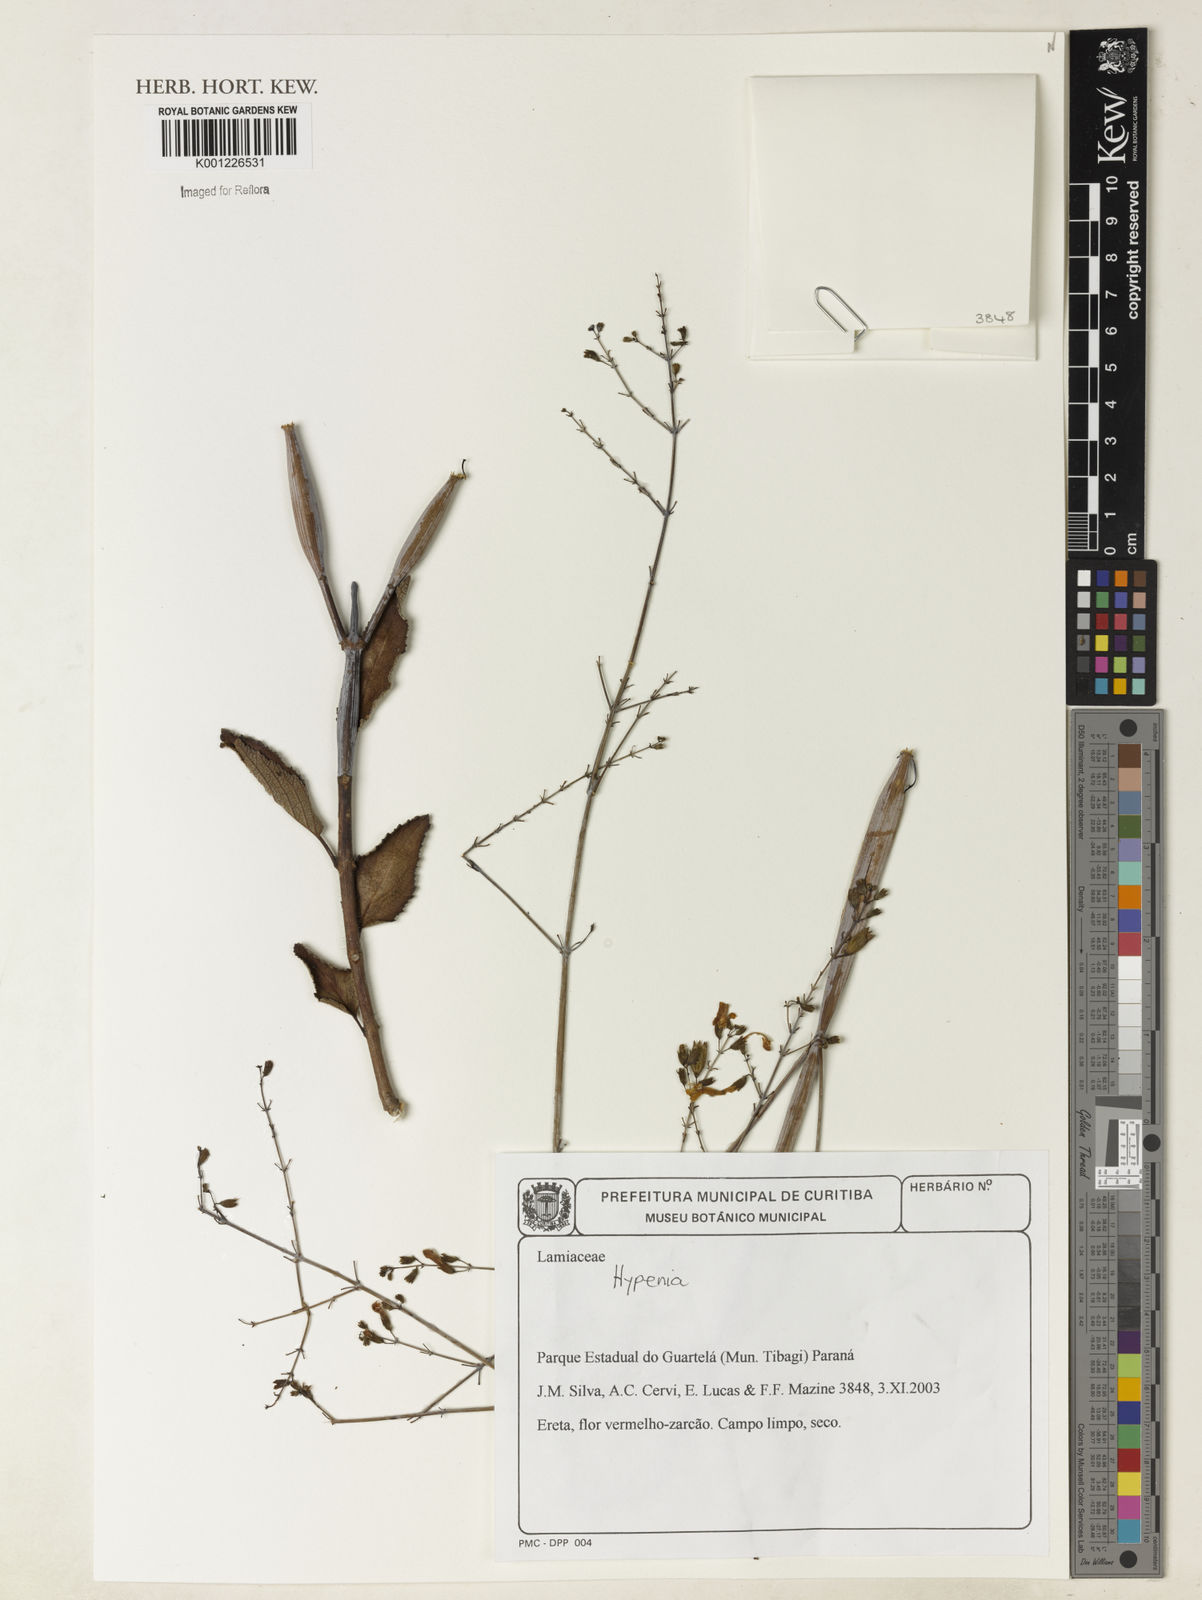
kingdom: Plantae
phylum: Tracheophyta
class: Magnoliopsida
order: Lamiales
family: Lamiaceae
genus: Hypenia
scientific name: Hypenia
